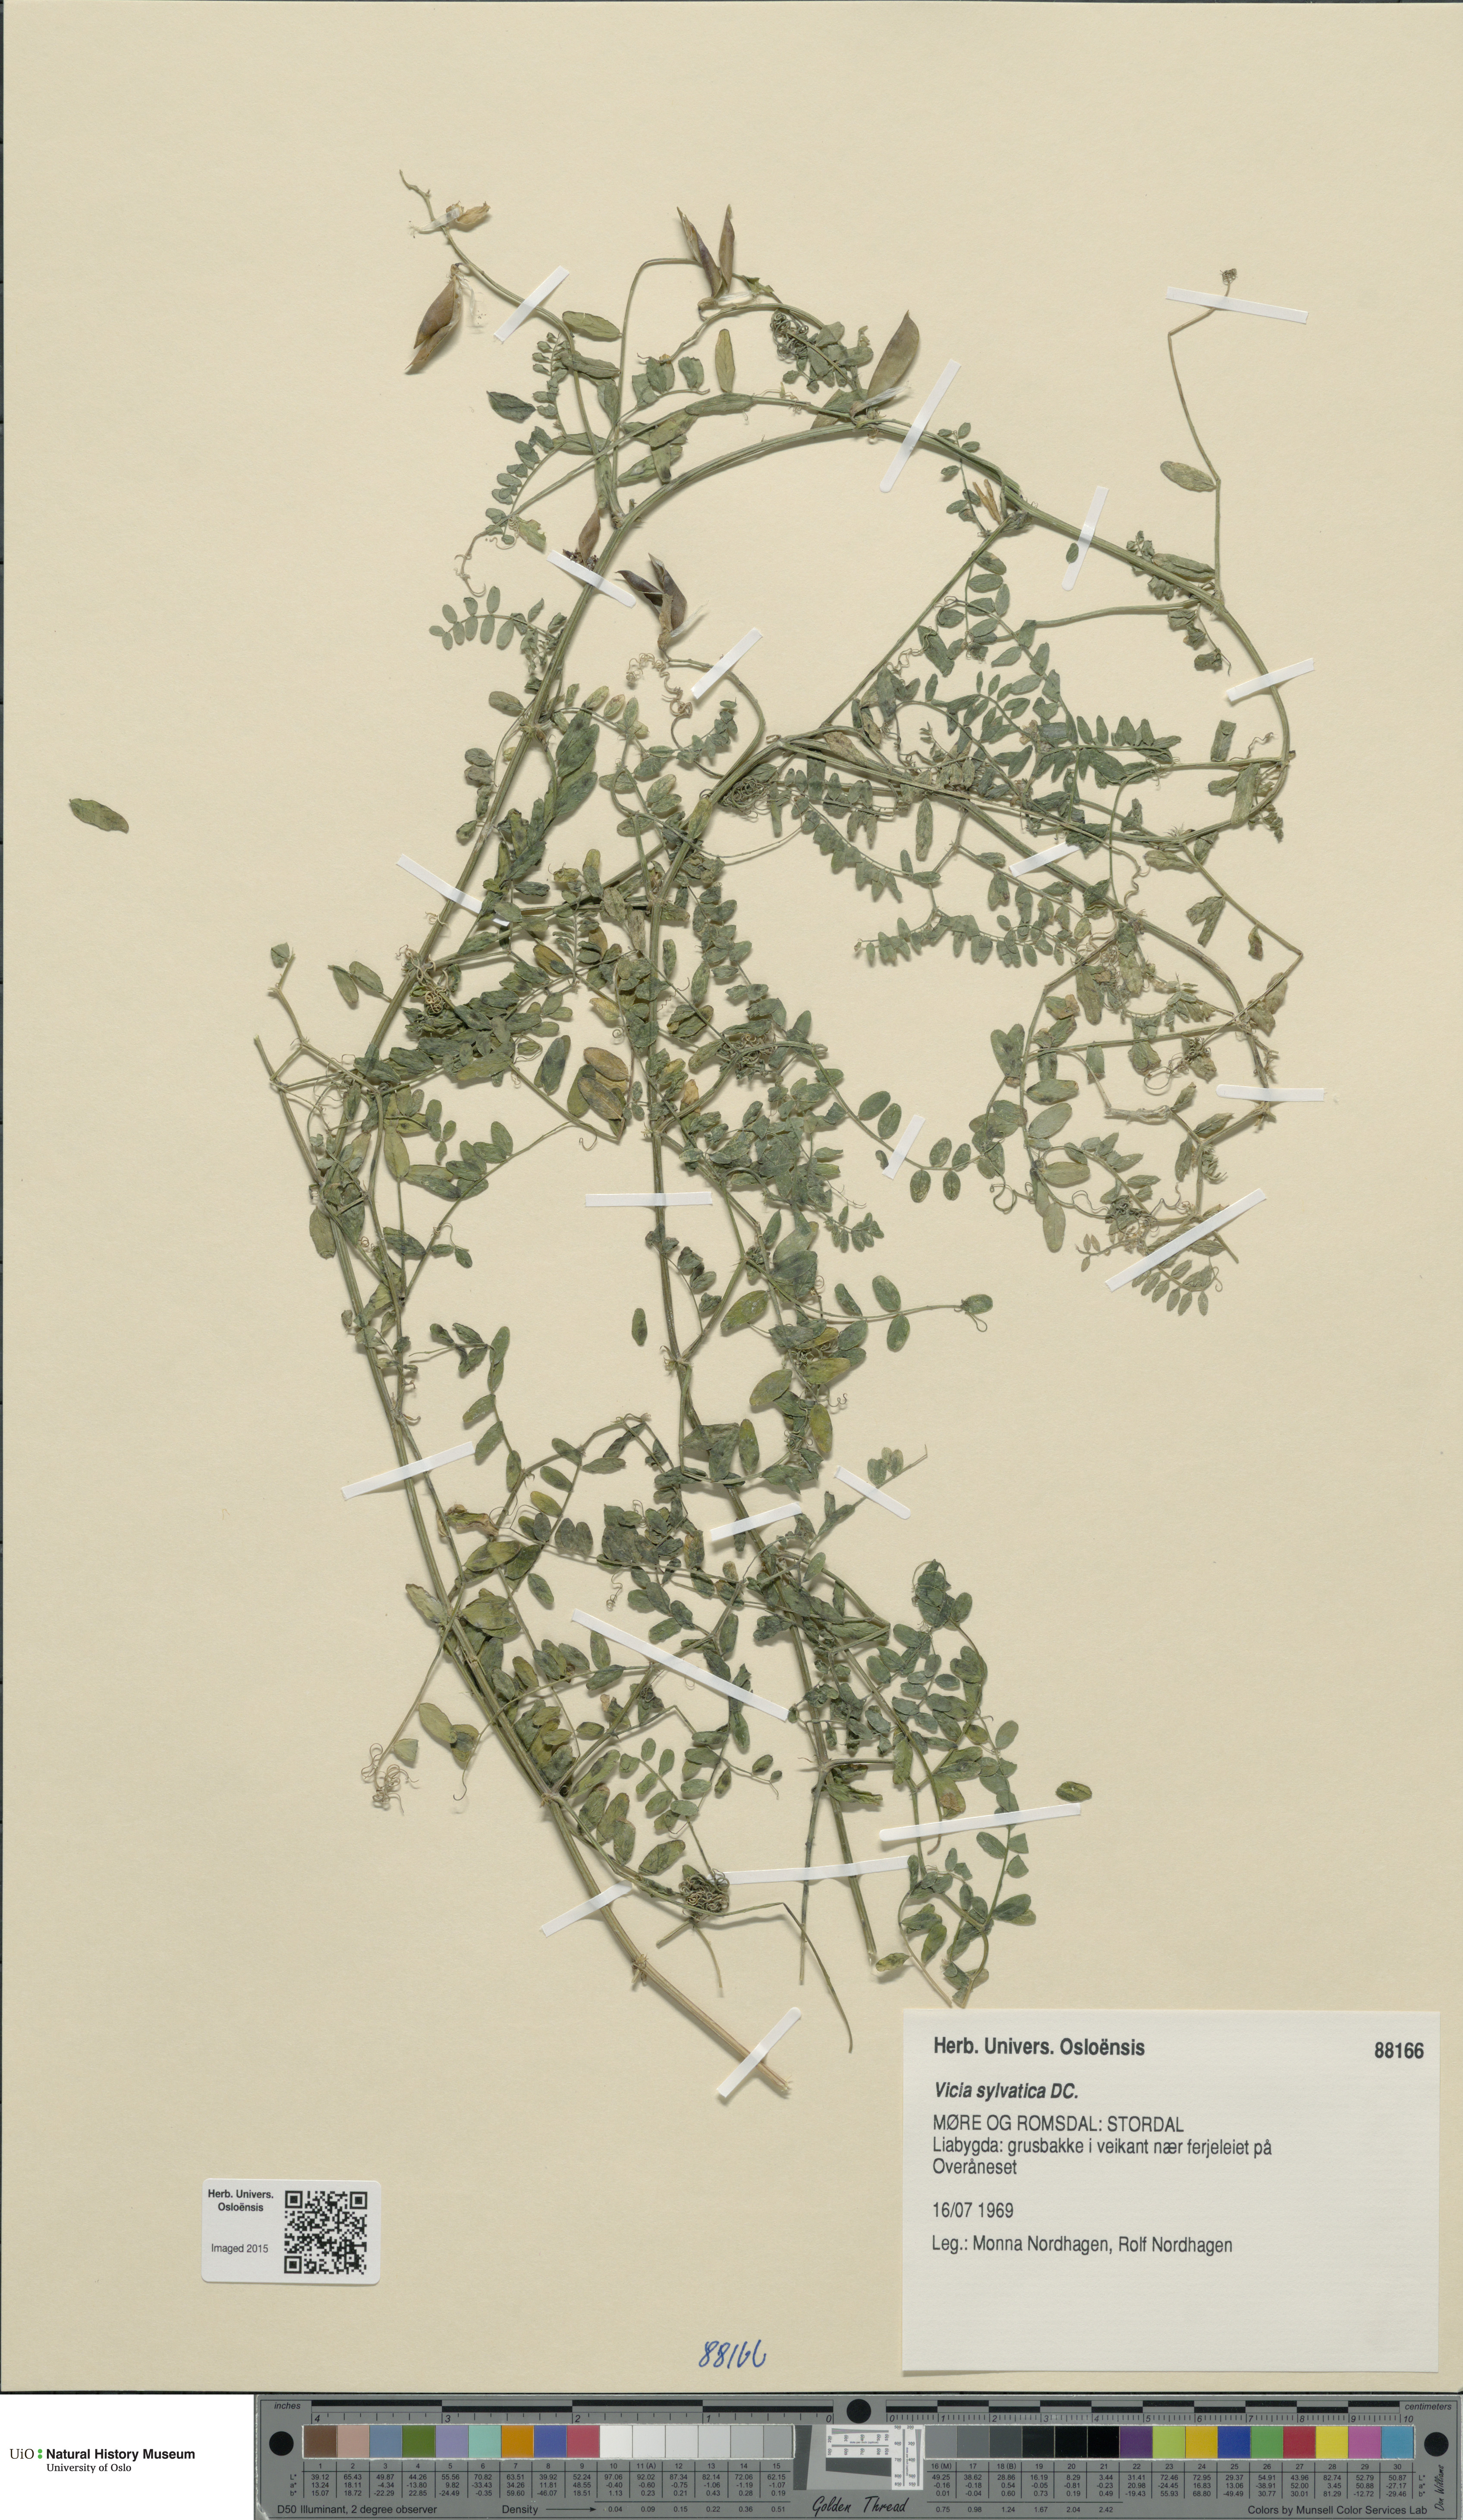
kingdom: Plantae
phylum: Tracheophyta
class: Magnoliopsida
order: Fabales
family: Fabaceae
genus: Vicia
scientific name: Vicia sylvatica
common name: Wood vetch
